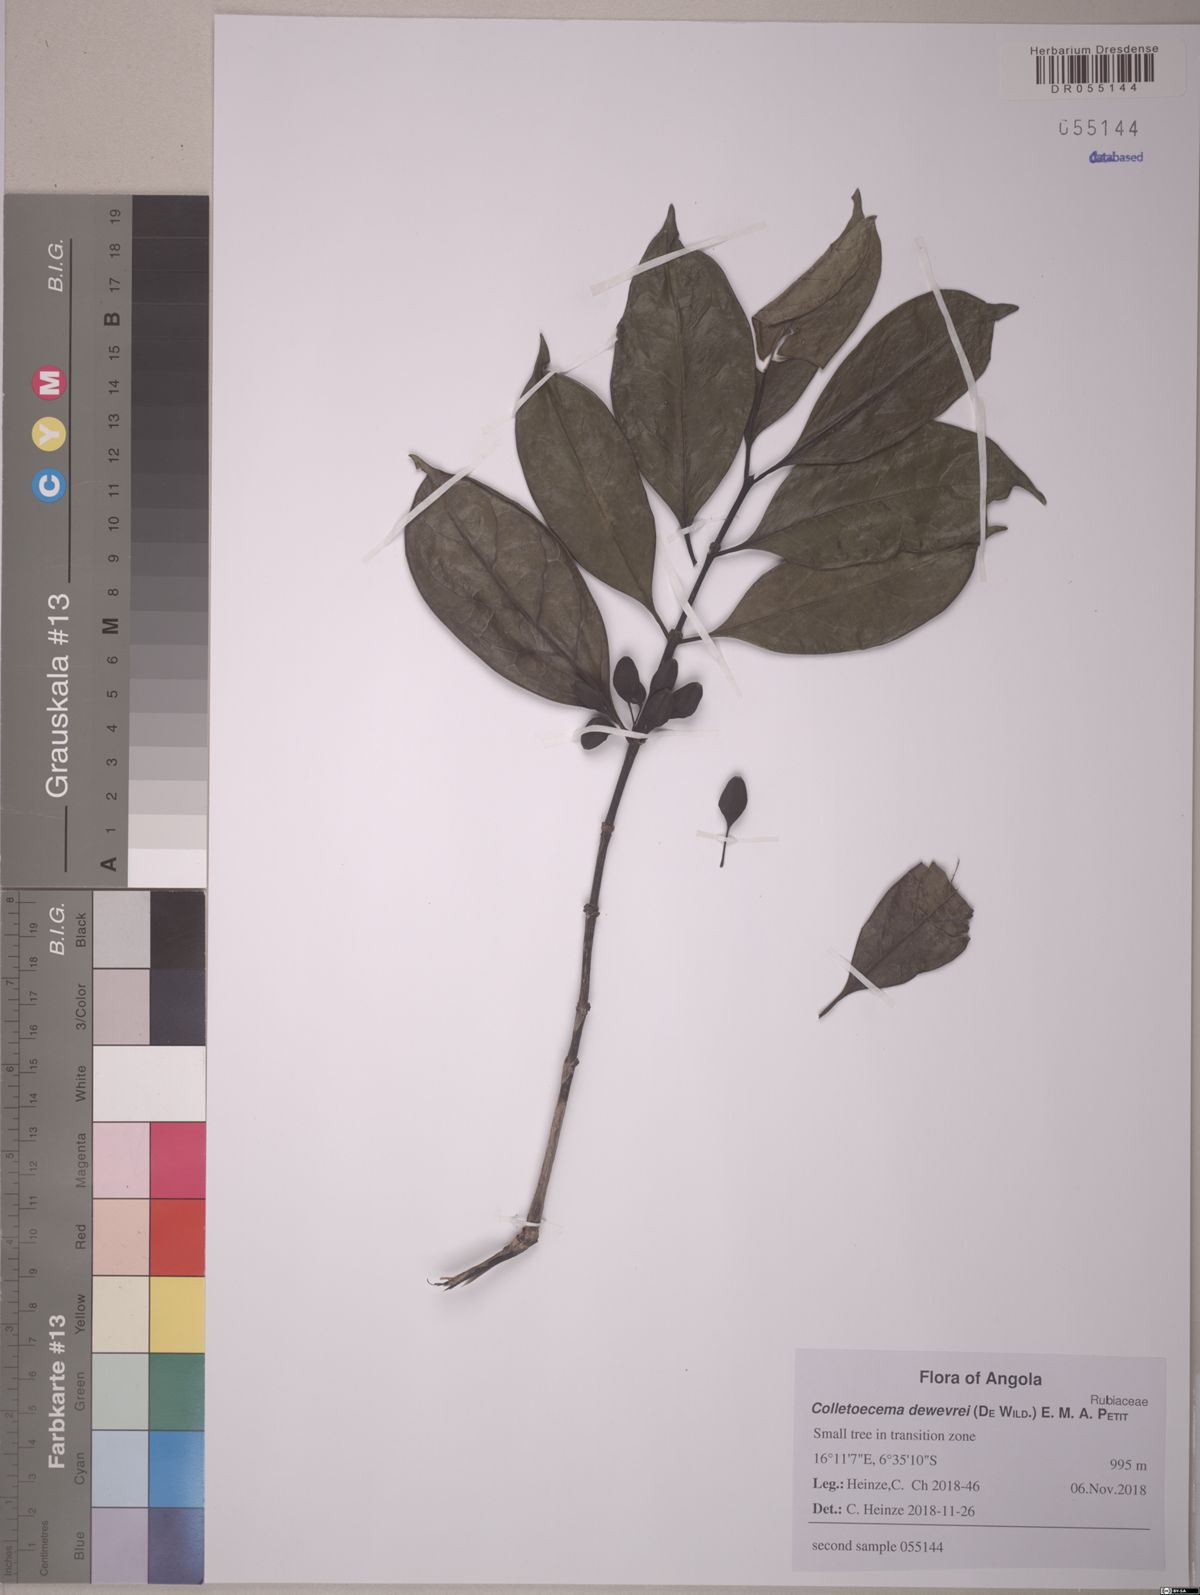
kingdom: Plantae
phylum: Tracheophyta
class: Magnoliopsida
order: Gentianales
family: Rubiaceae
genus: Colletoecema
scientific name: Colletoecema tortistilum
